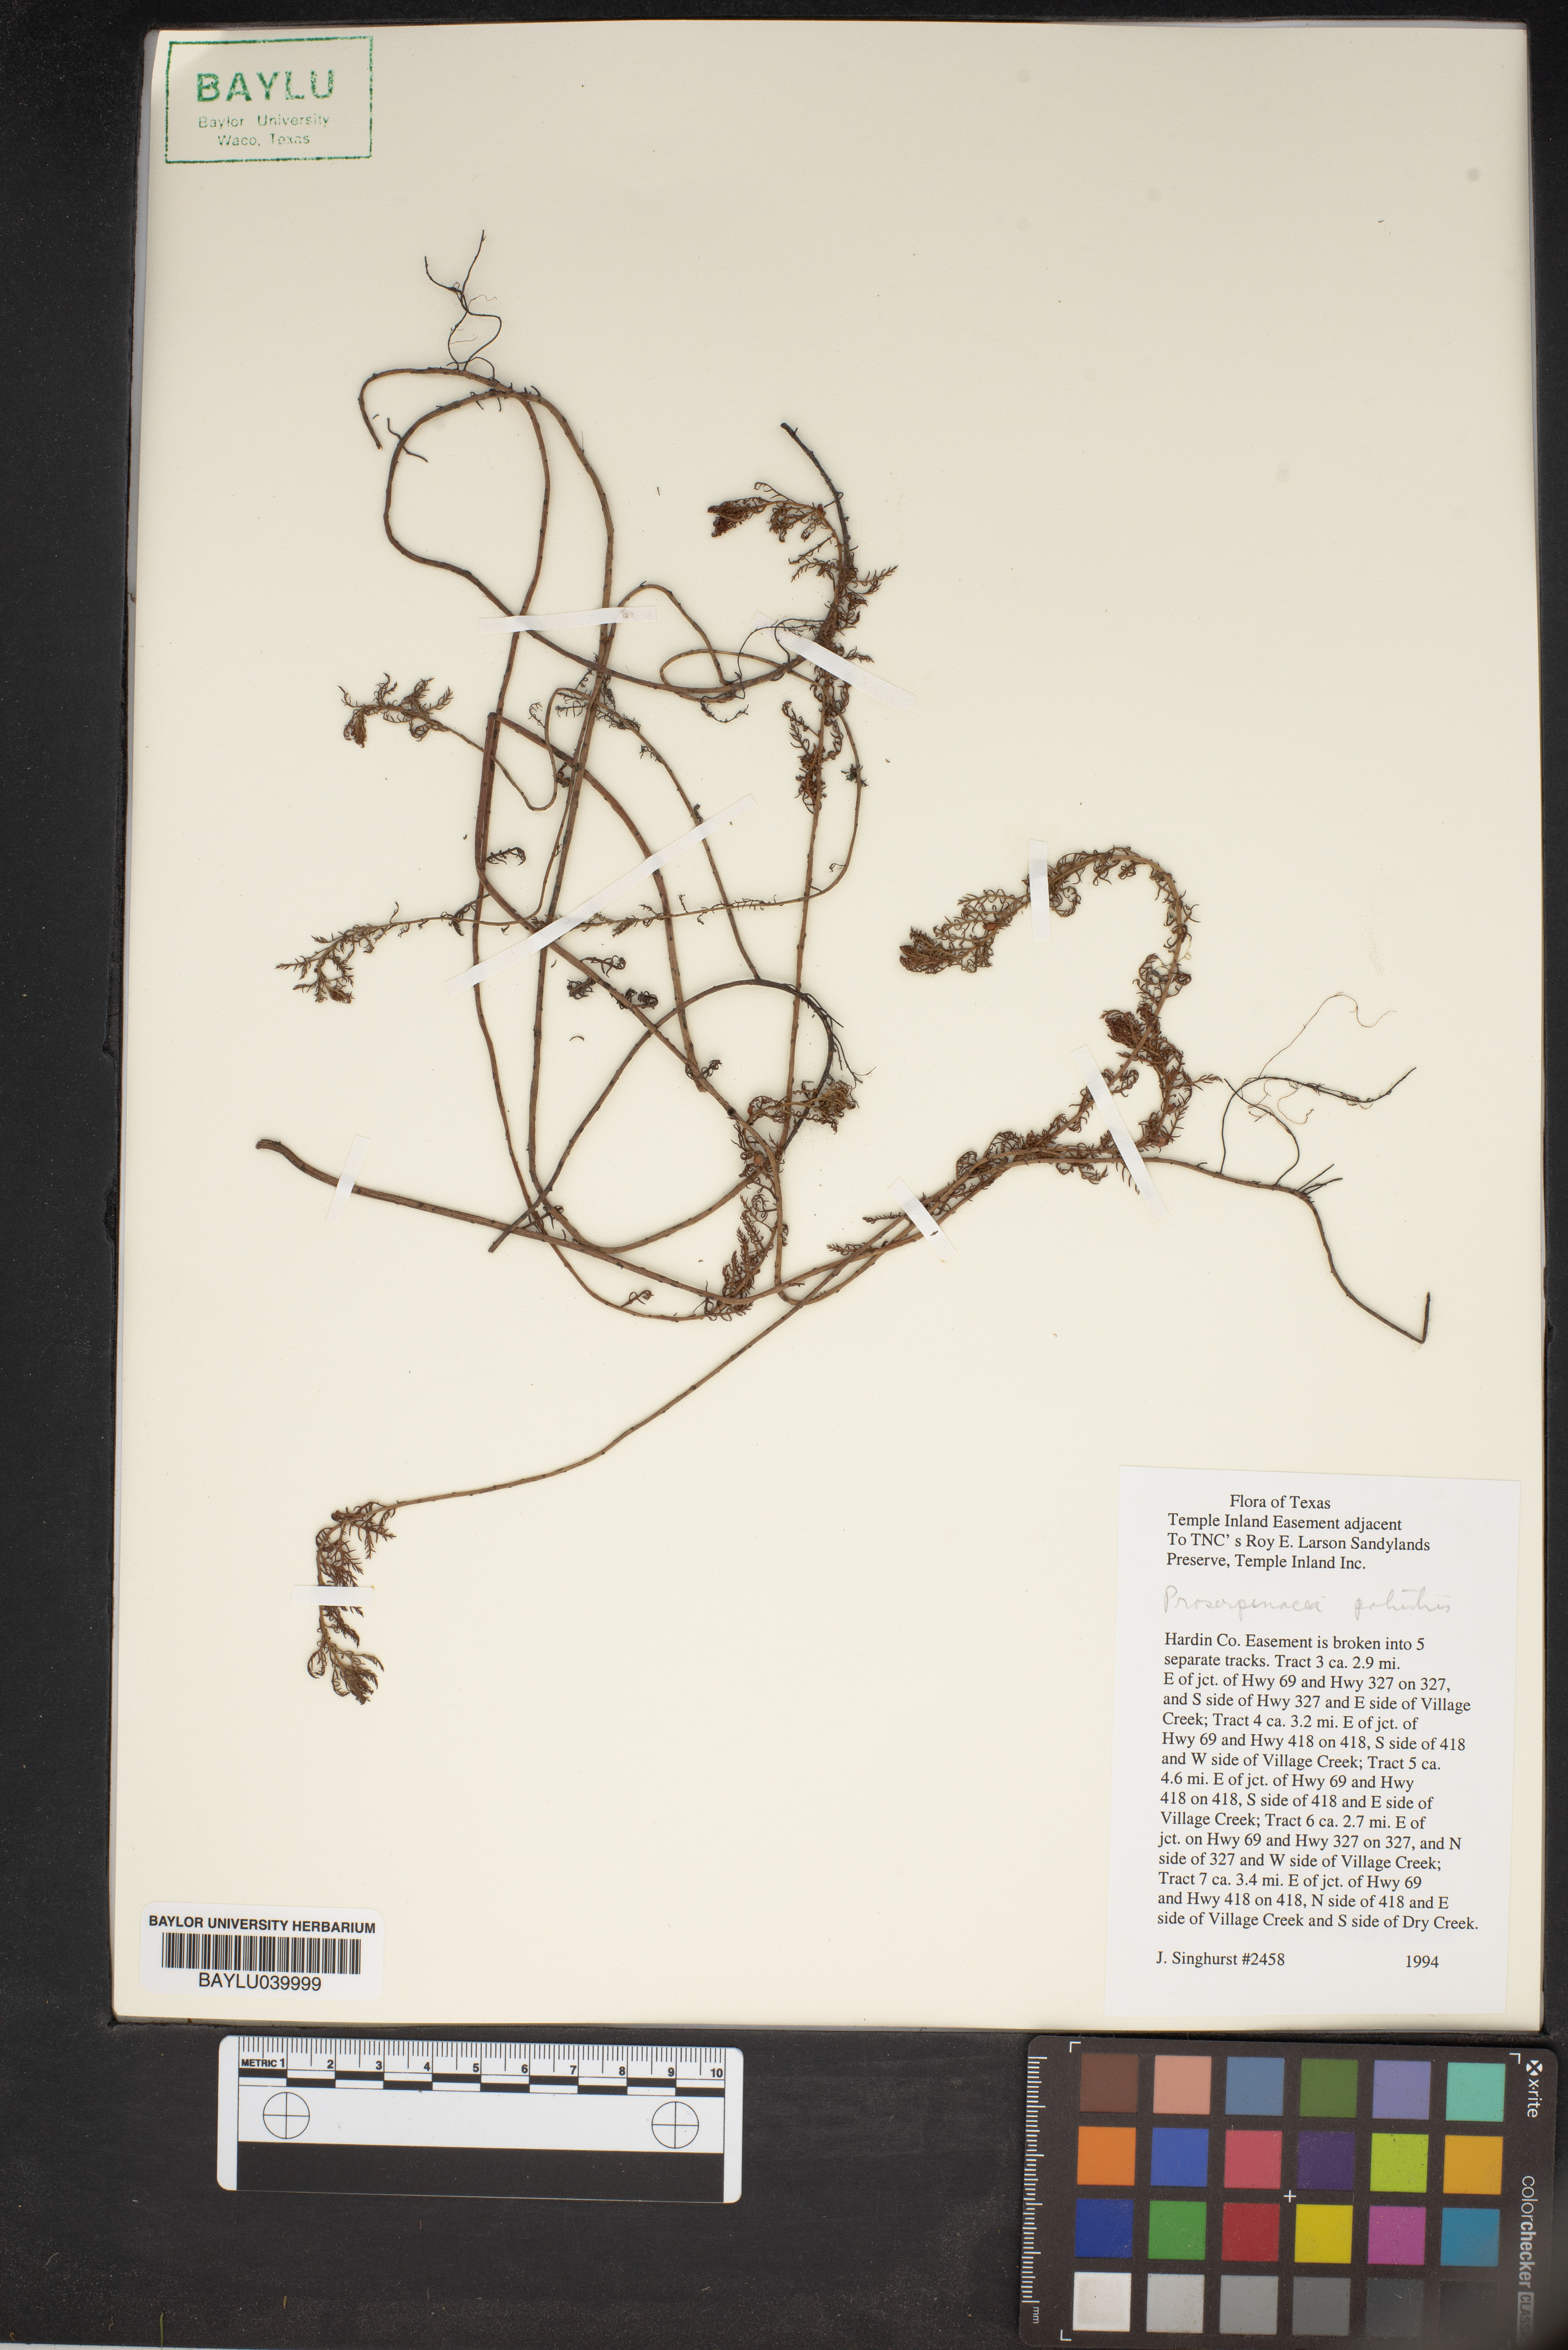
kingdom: Plantae
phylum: Tracheophyta
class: Magnoliopsida
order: Saxifragales
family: Haloragaceae
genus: Proserpinaca
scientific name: Proserpinaca palustris
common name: Marsh mermaidweed
